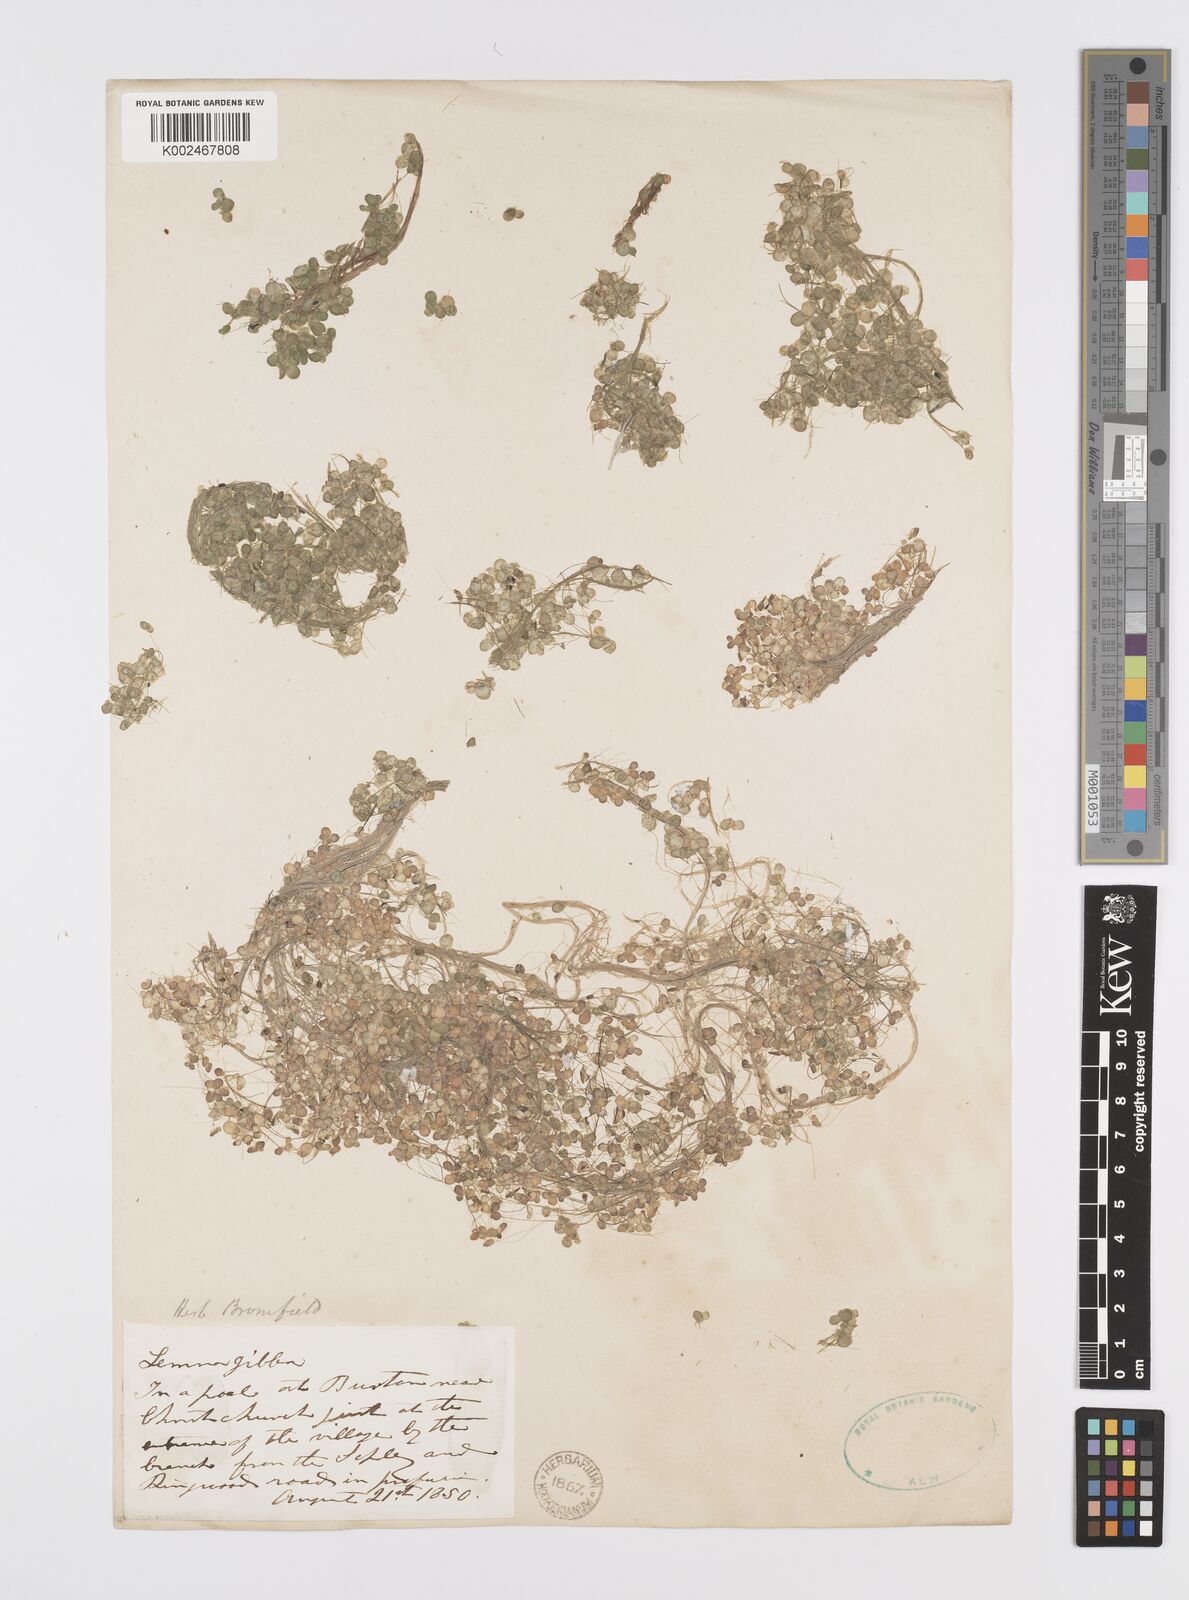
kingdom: Plantae
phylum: Tracheophyta
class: Liliopsida
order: Alismatales
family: Araceae
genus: Lemna
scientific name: Lemna gibba
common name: Fat duckweed
